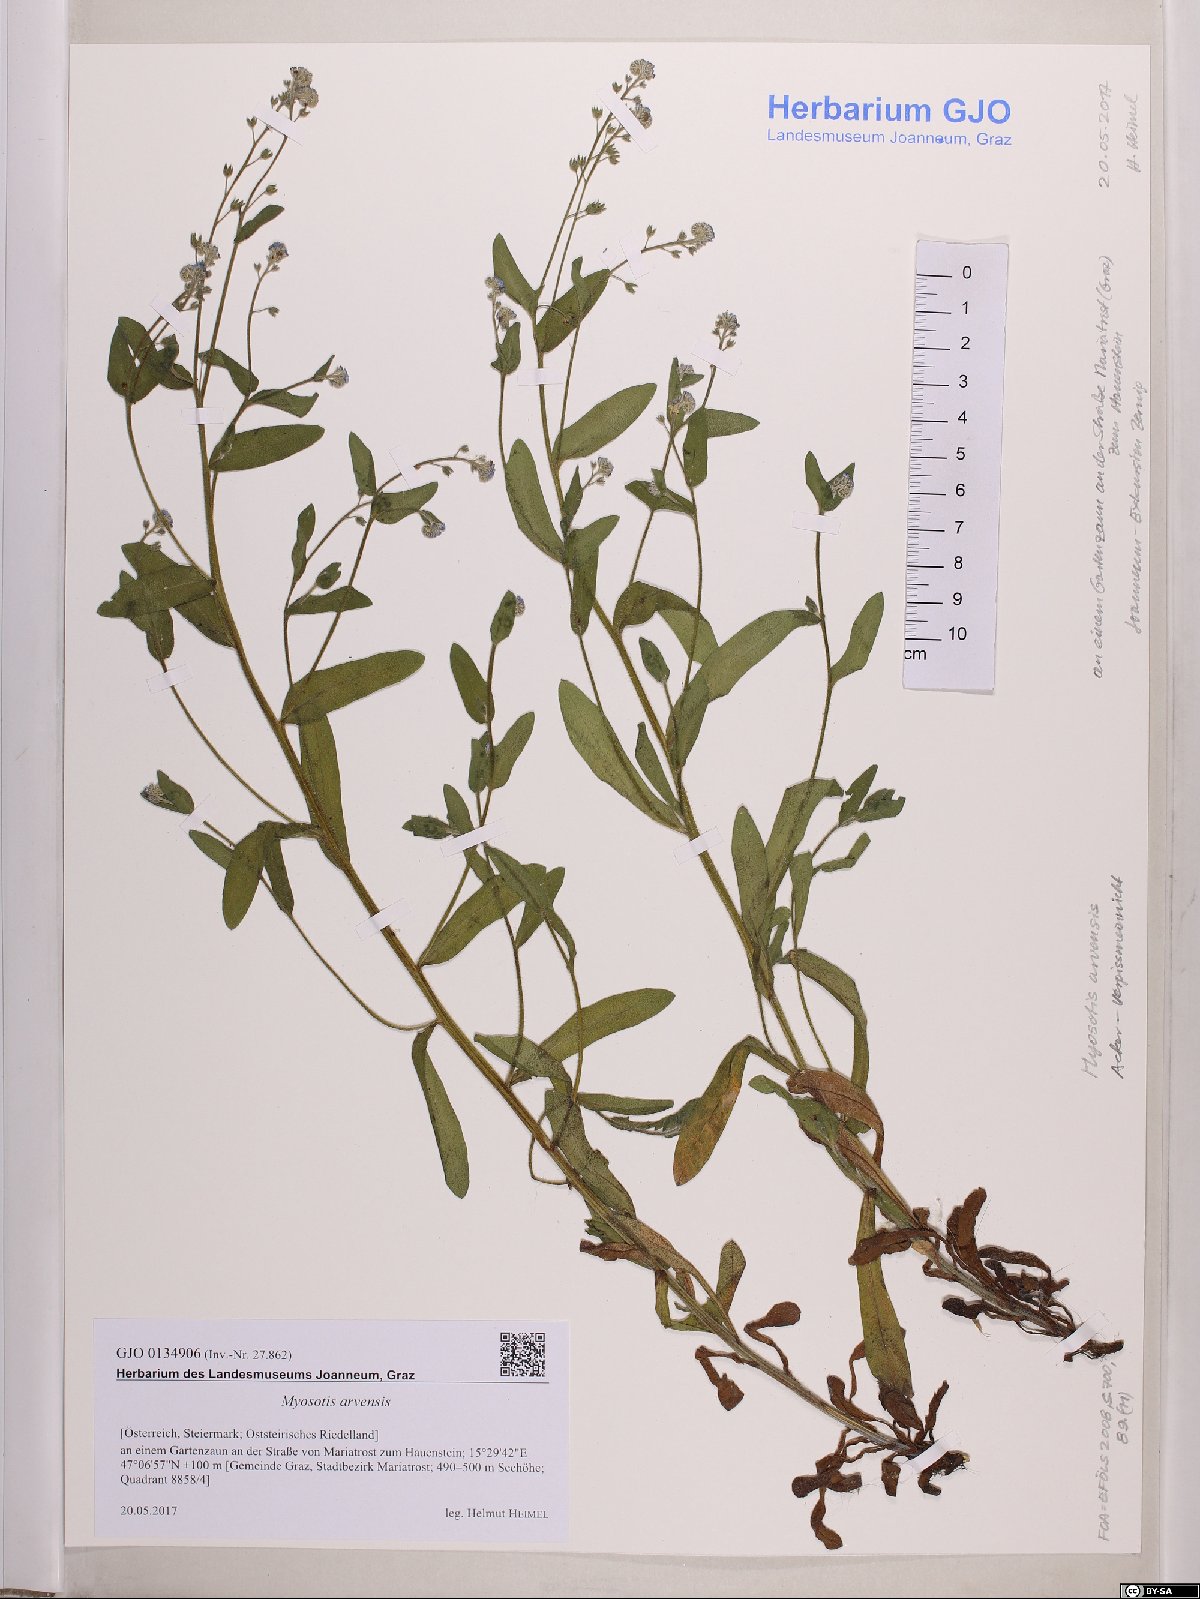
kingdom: Plantae
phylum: Tracheophyta
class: Magnoliopsida
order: Boraginales
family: Boraginaceae
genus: Myosotis
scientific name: Myosotis arvensis
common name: Field forget-me-not
